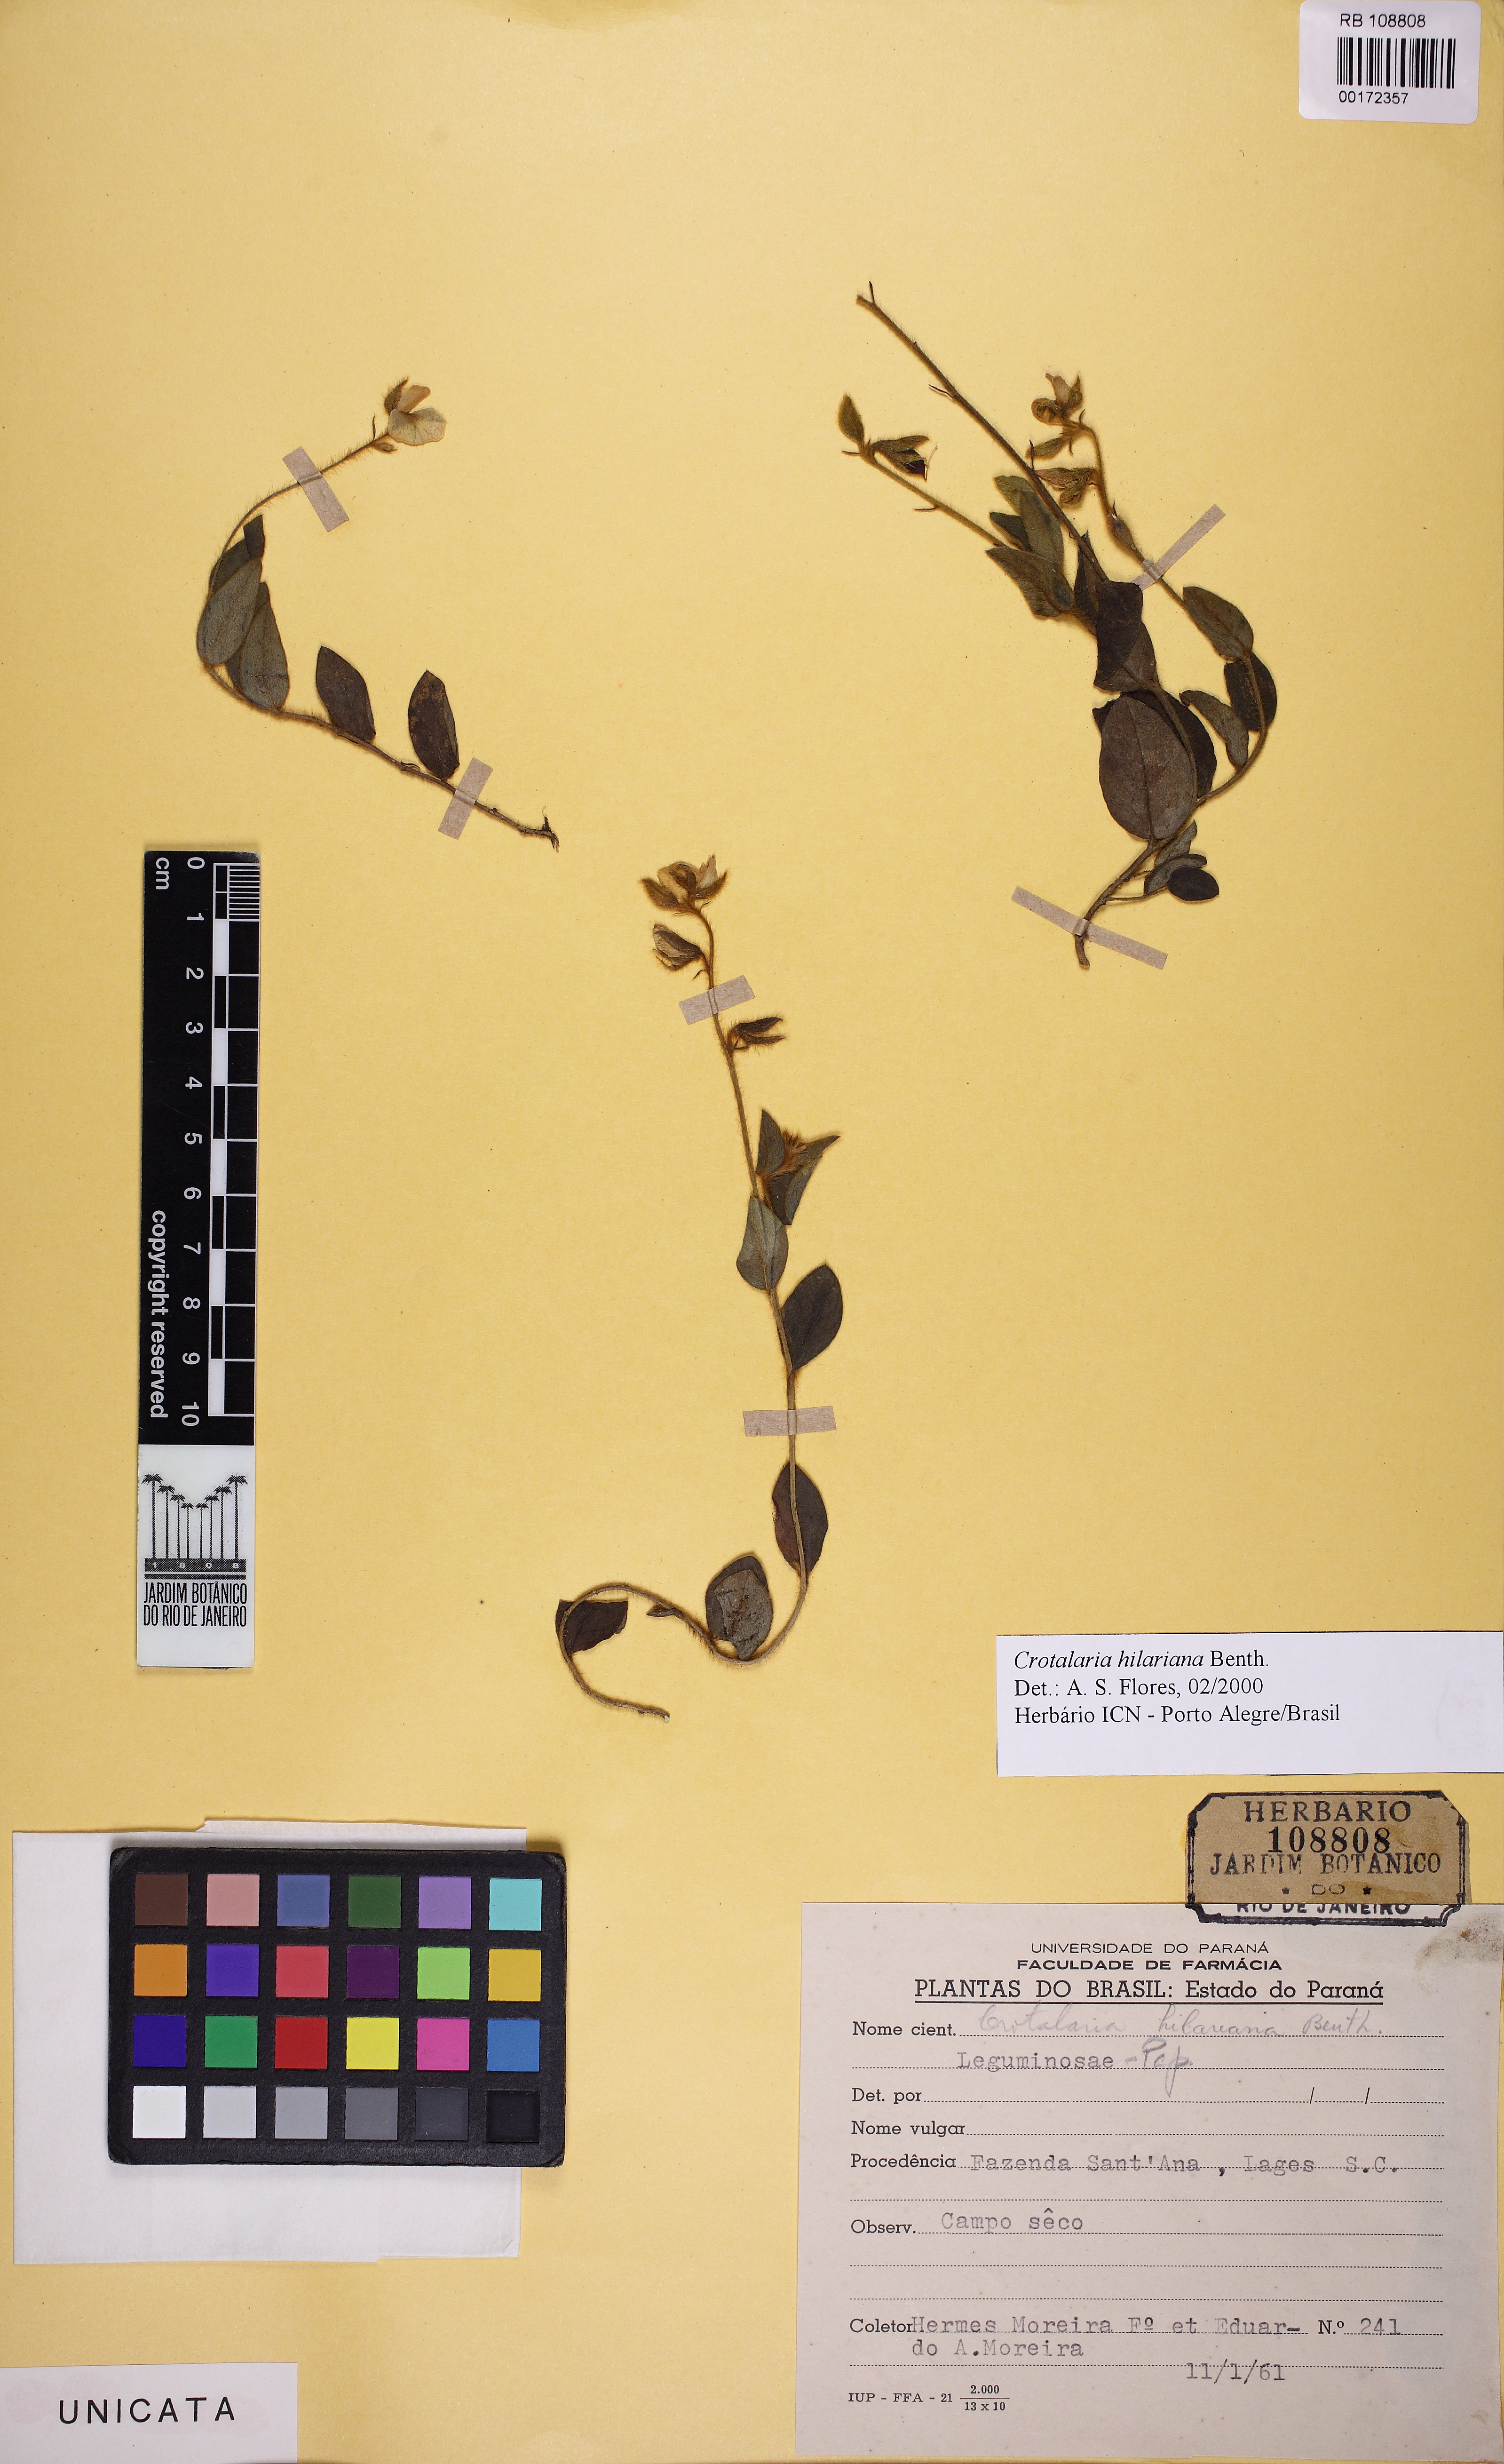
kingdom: Plantae
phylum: Tracheophyta
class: Magnoliopsida
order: Fabales
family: Fabaceae
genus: Crotalaria
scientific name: Crotalaria hilariana
